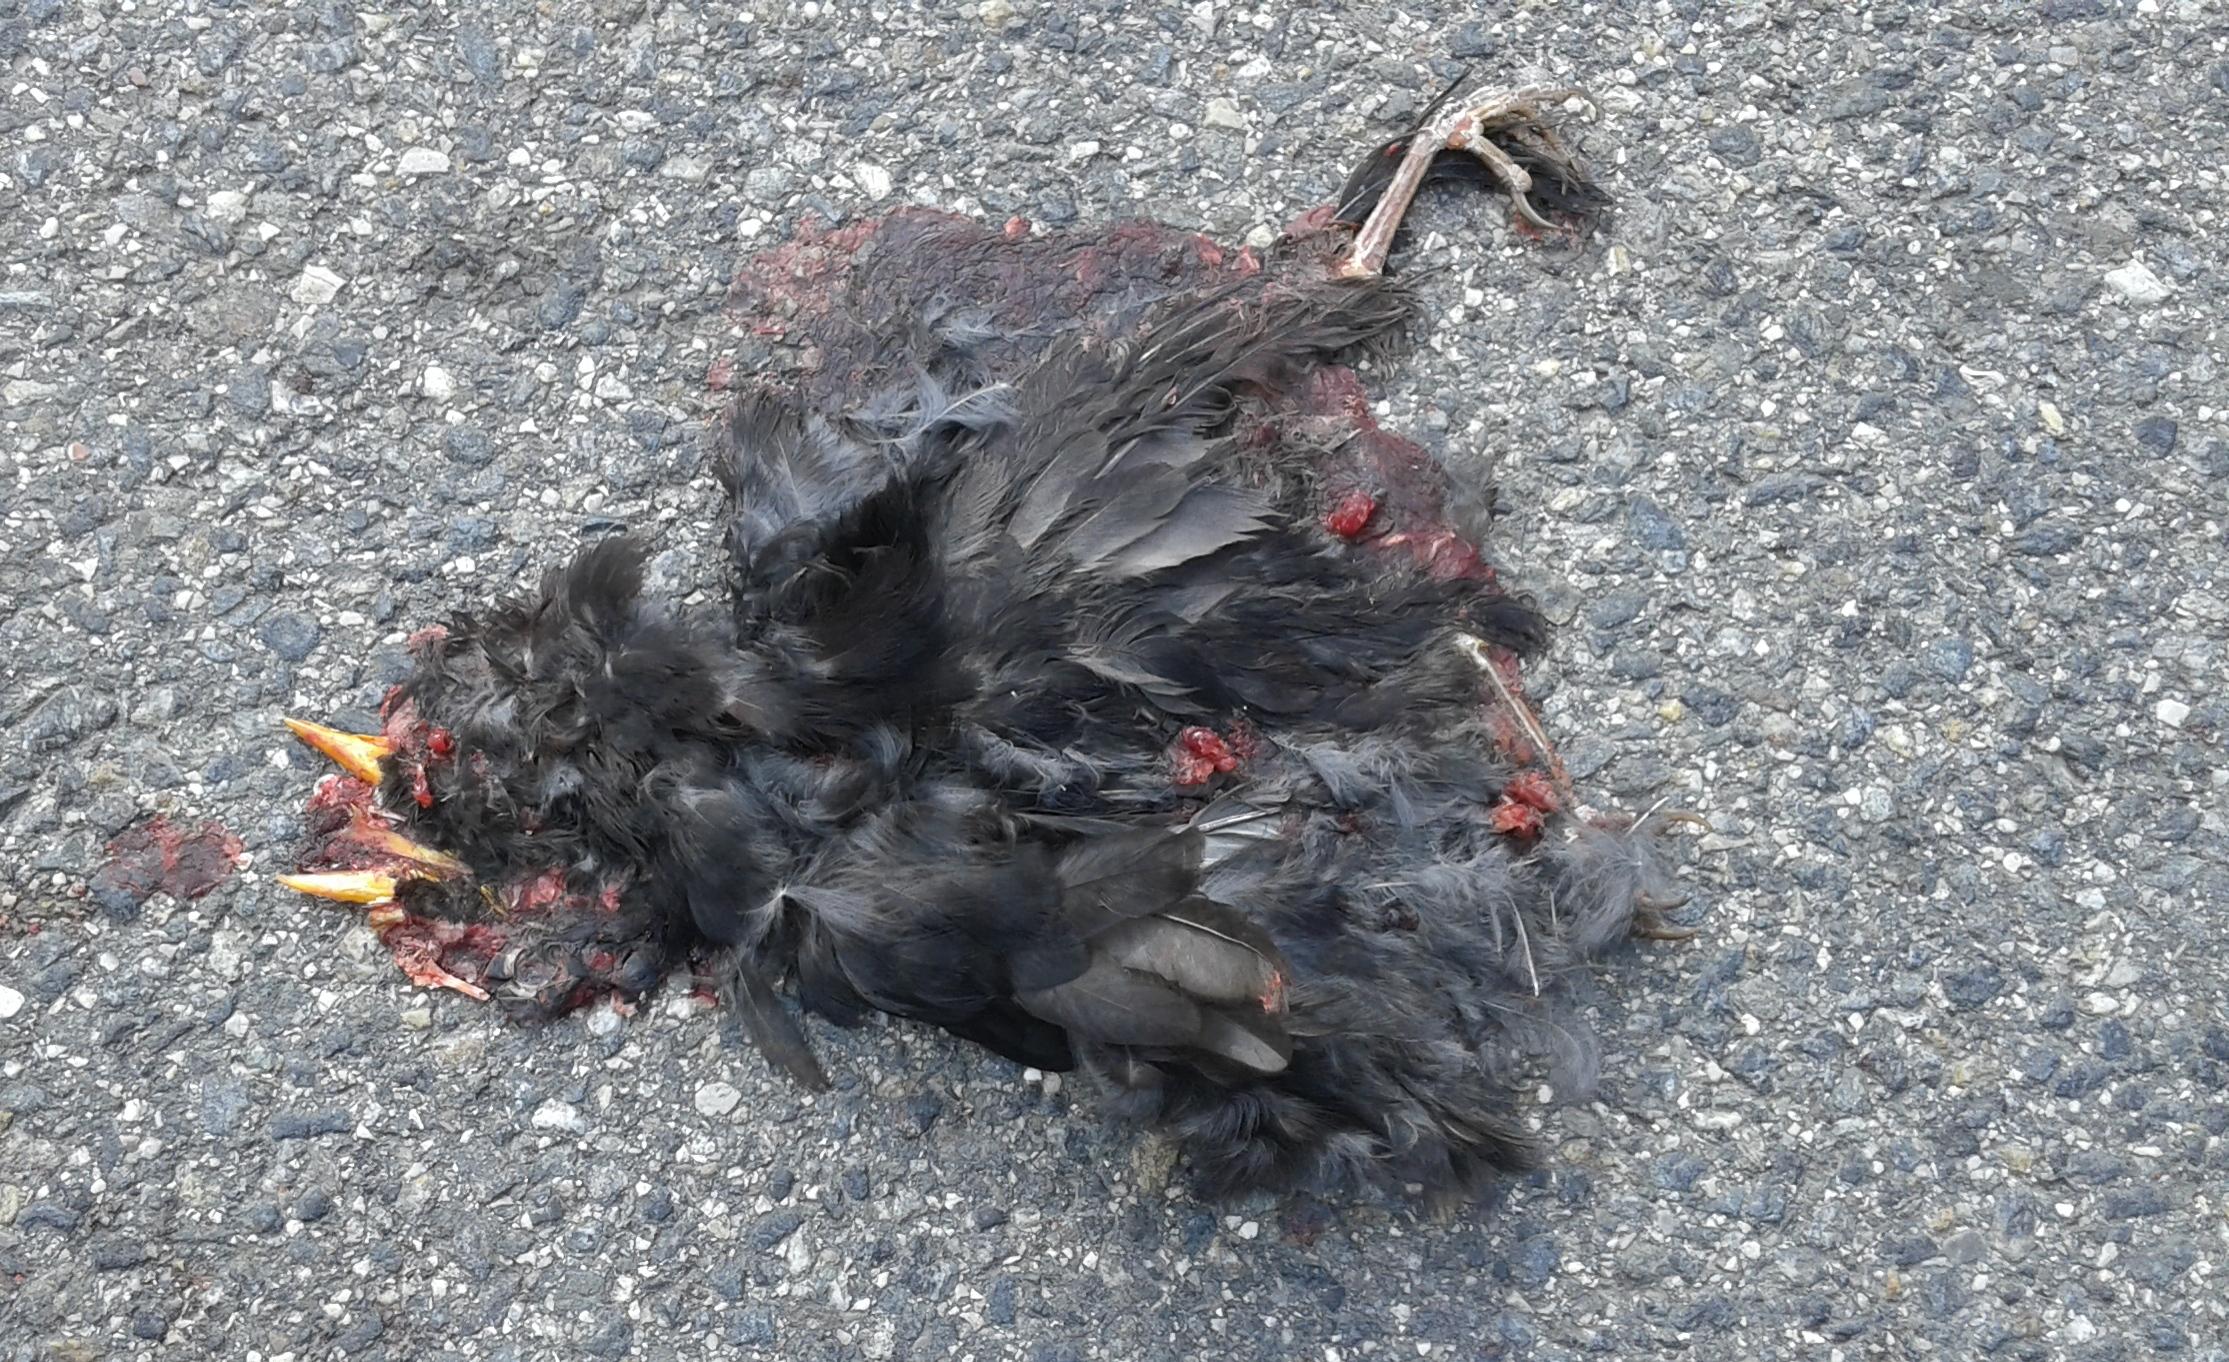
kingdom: Animalia
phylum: Chordata
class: Aves
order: Passeriformes
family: Turdidae
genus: Turdus
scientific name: Turdus merula
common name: Common blackbird
